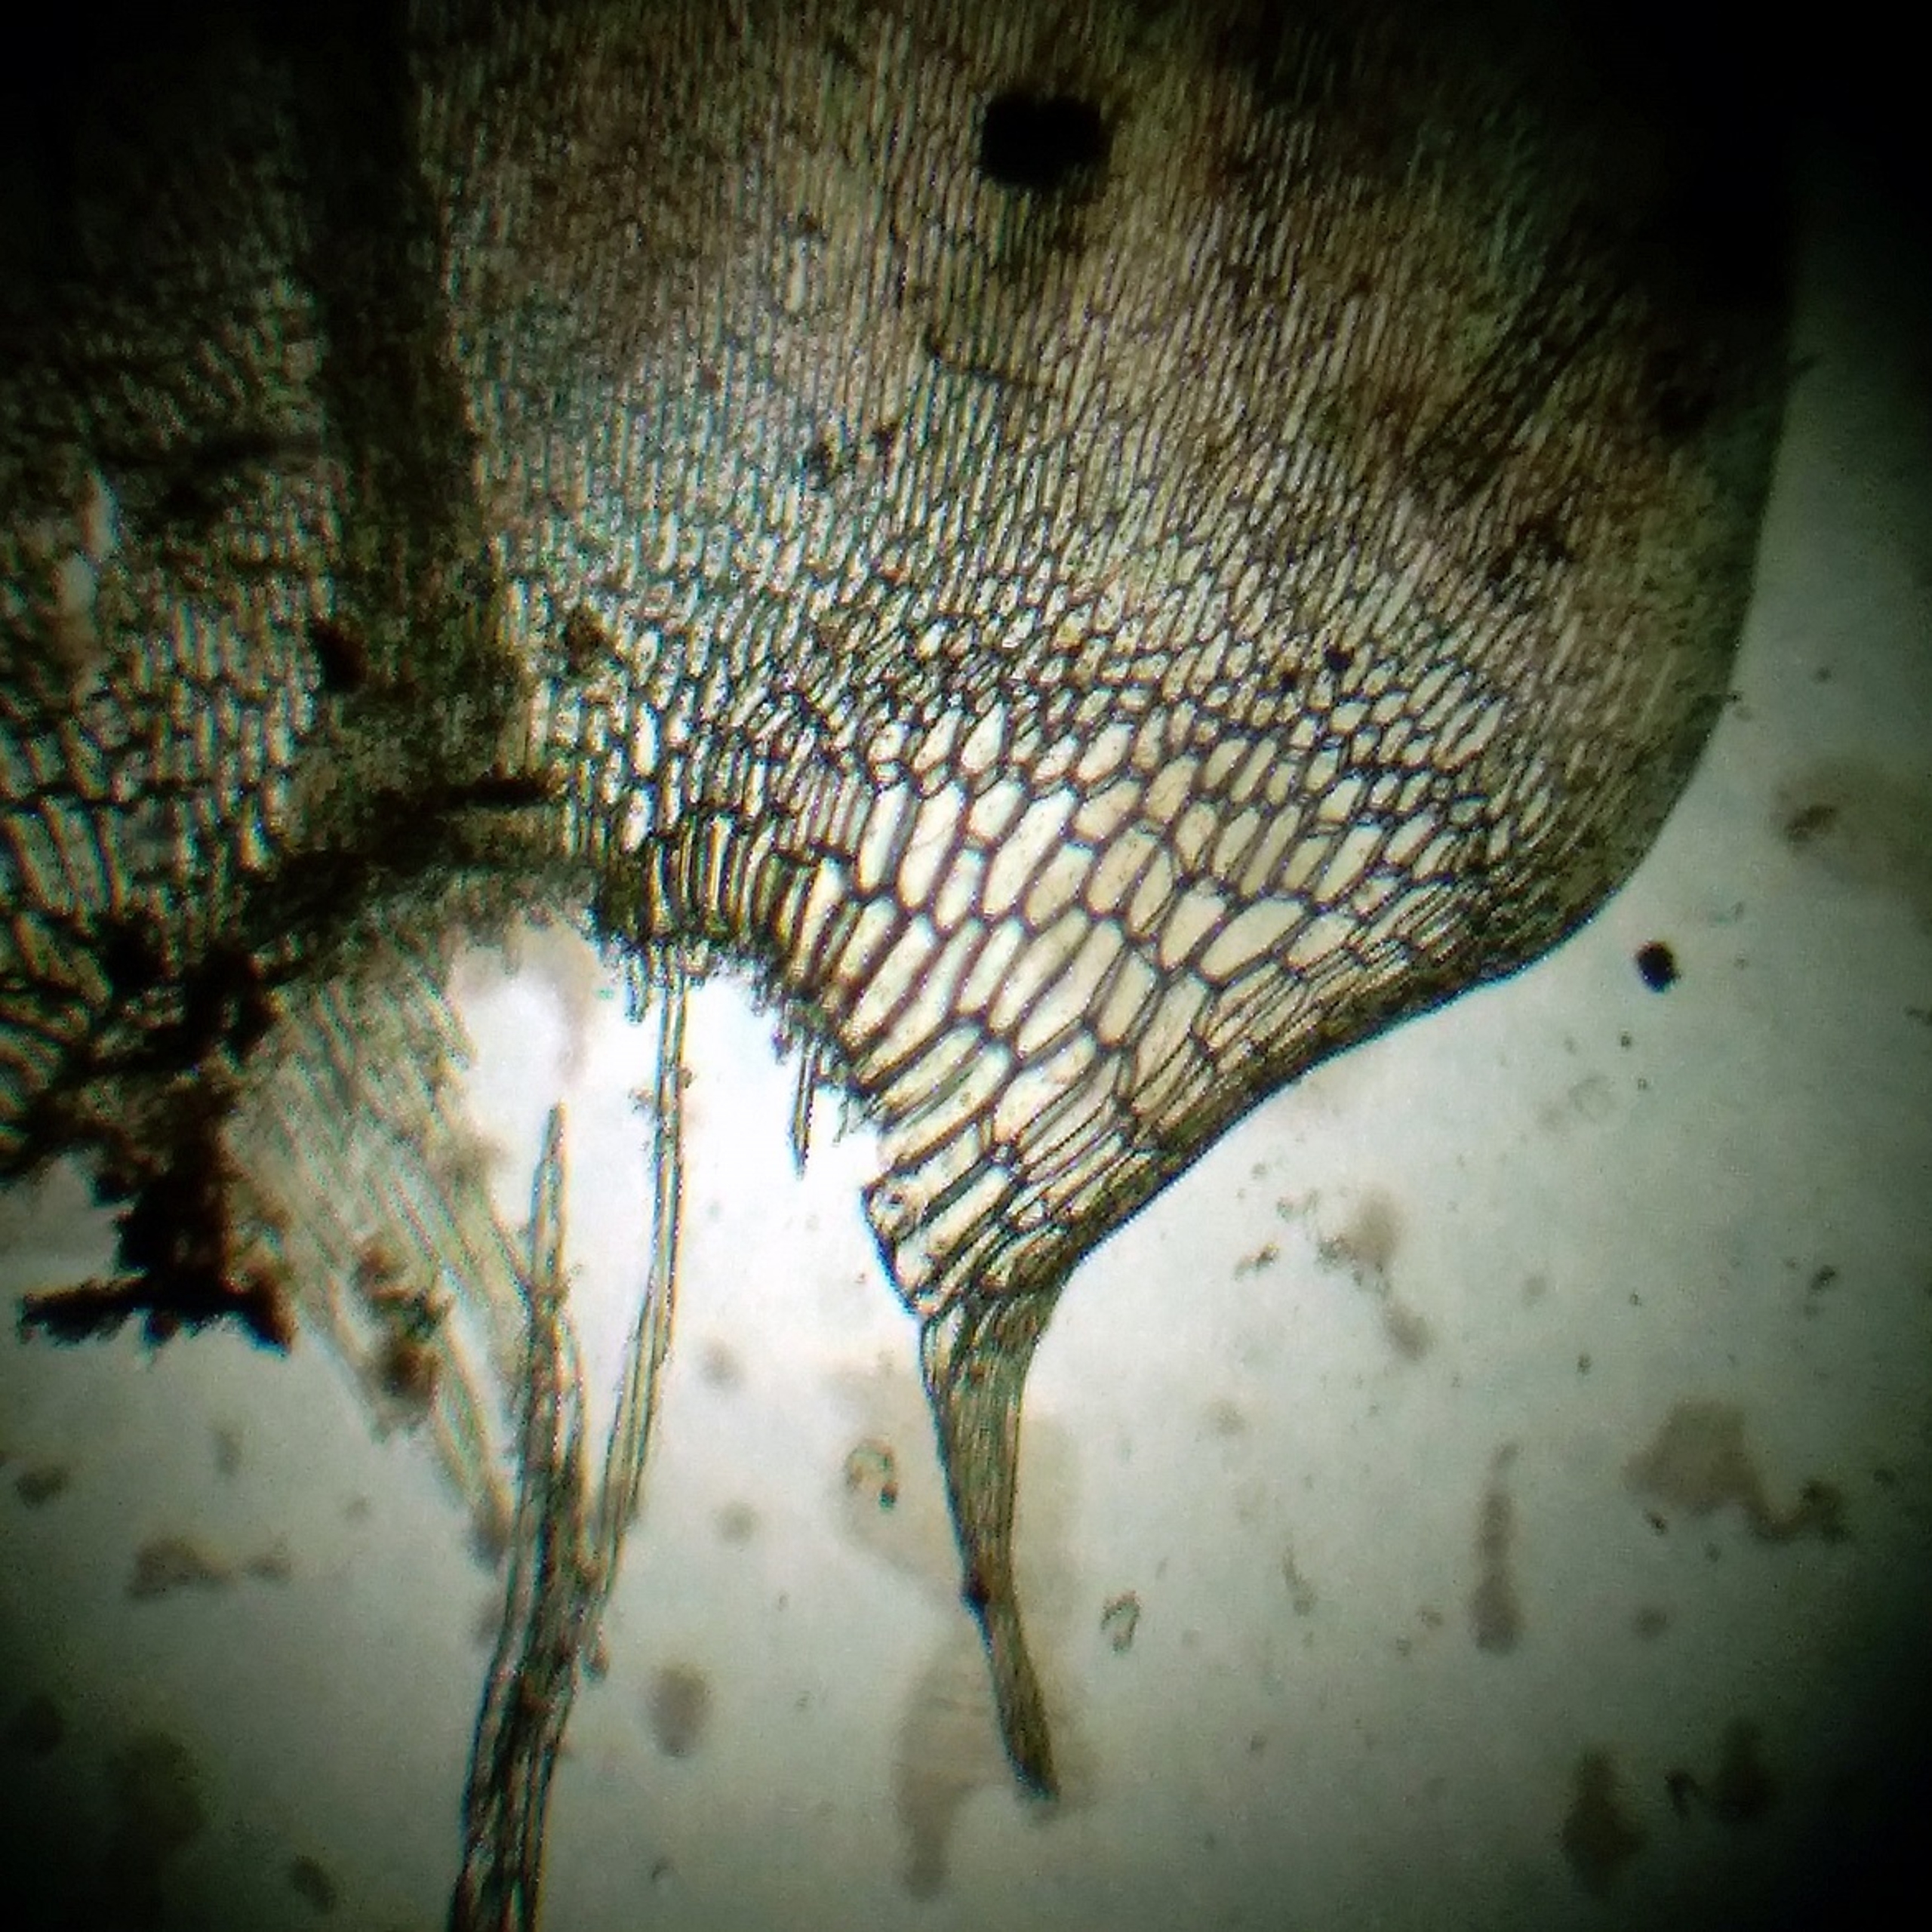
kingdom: Plantae
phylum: Bryophyta
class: Bryopsida
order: Hypnales
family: Calliergonaceae
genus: Calliergon
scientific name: Calliergon giganteum
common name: Stor skebladsmos
